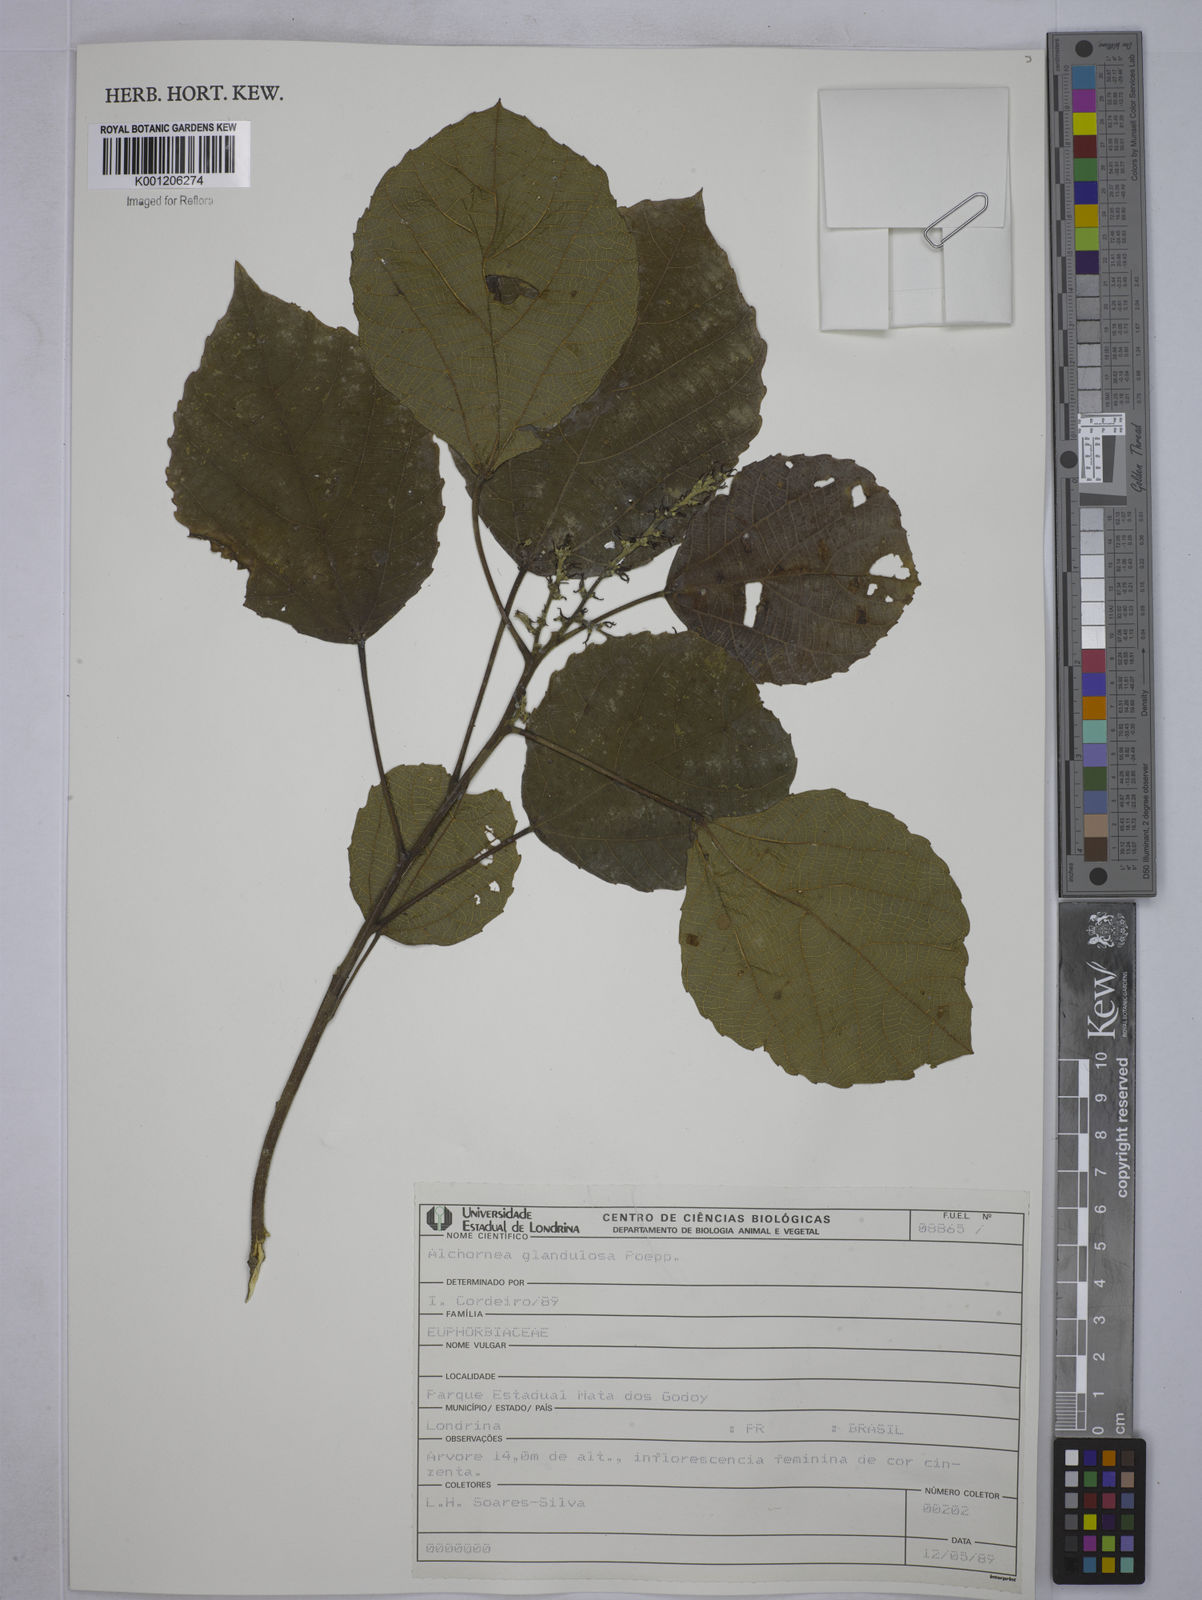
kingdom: Plantae
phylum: Tracheophyta
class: Magnoliopsida
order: Malpighiales
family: Euphorbiaceae
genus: Alchornea
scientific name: Alchornea glandulosa
